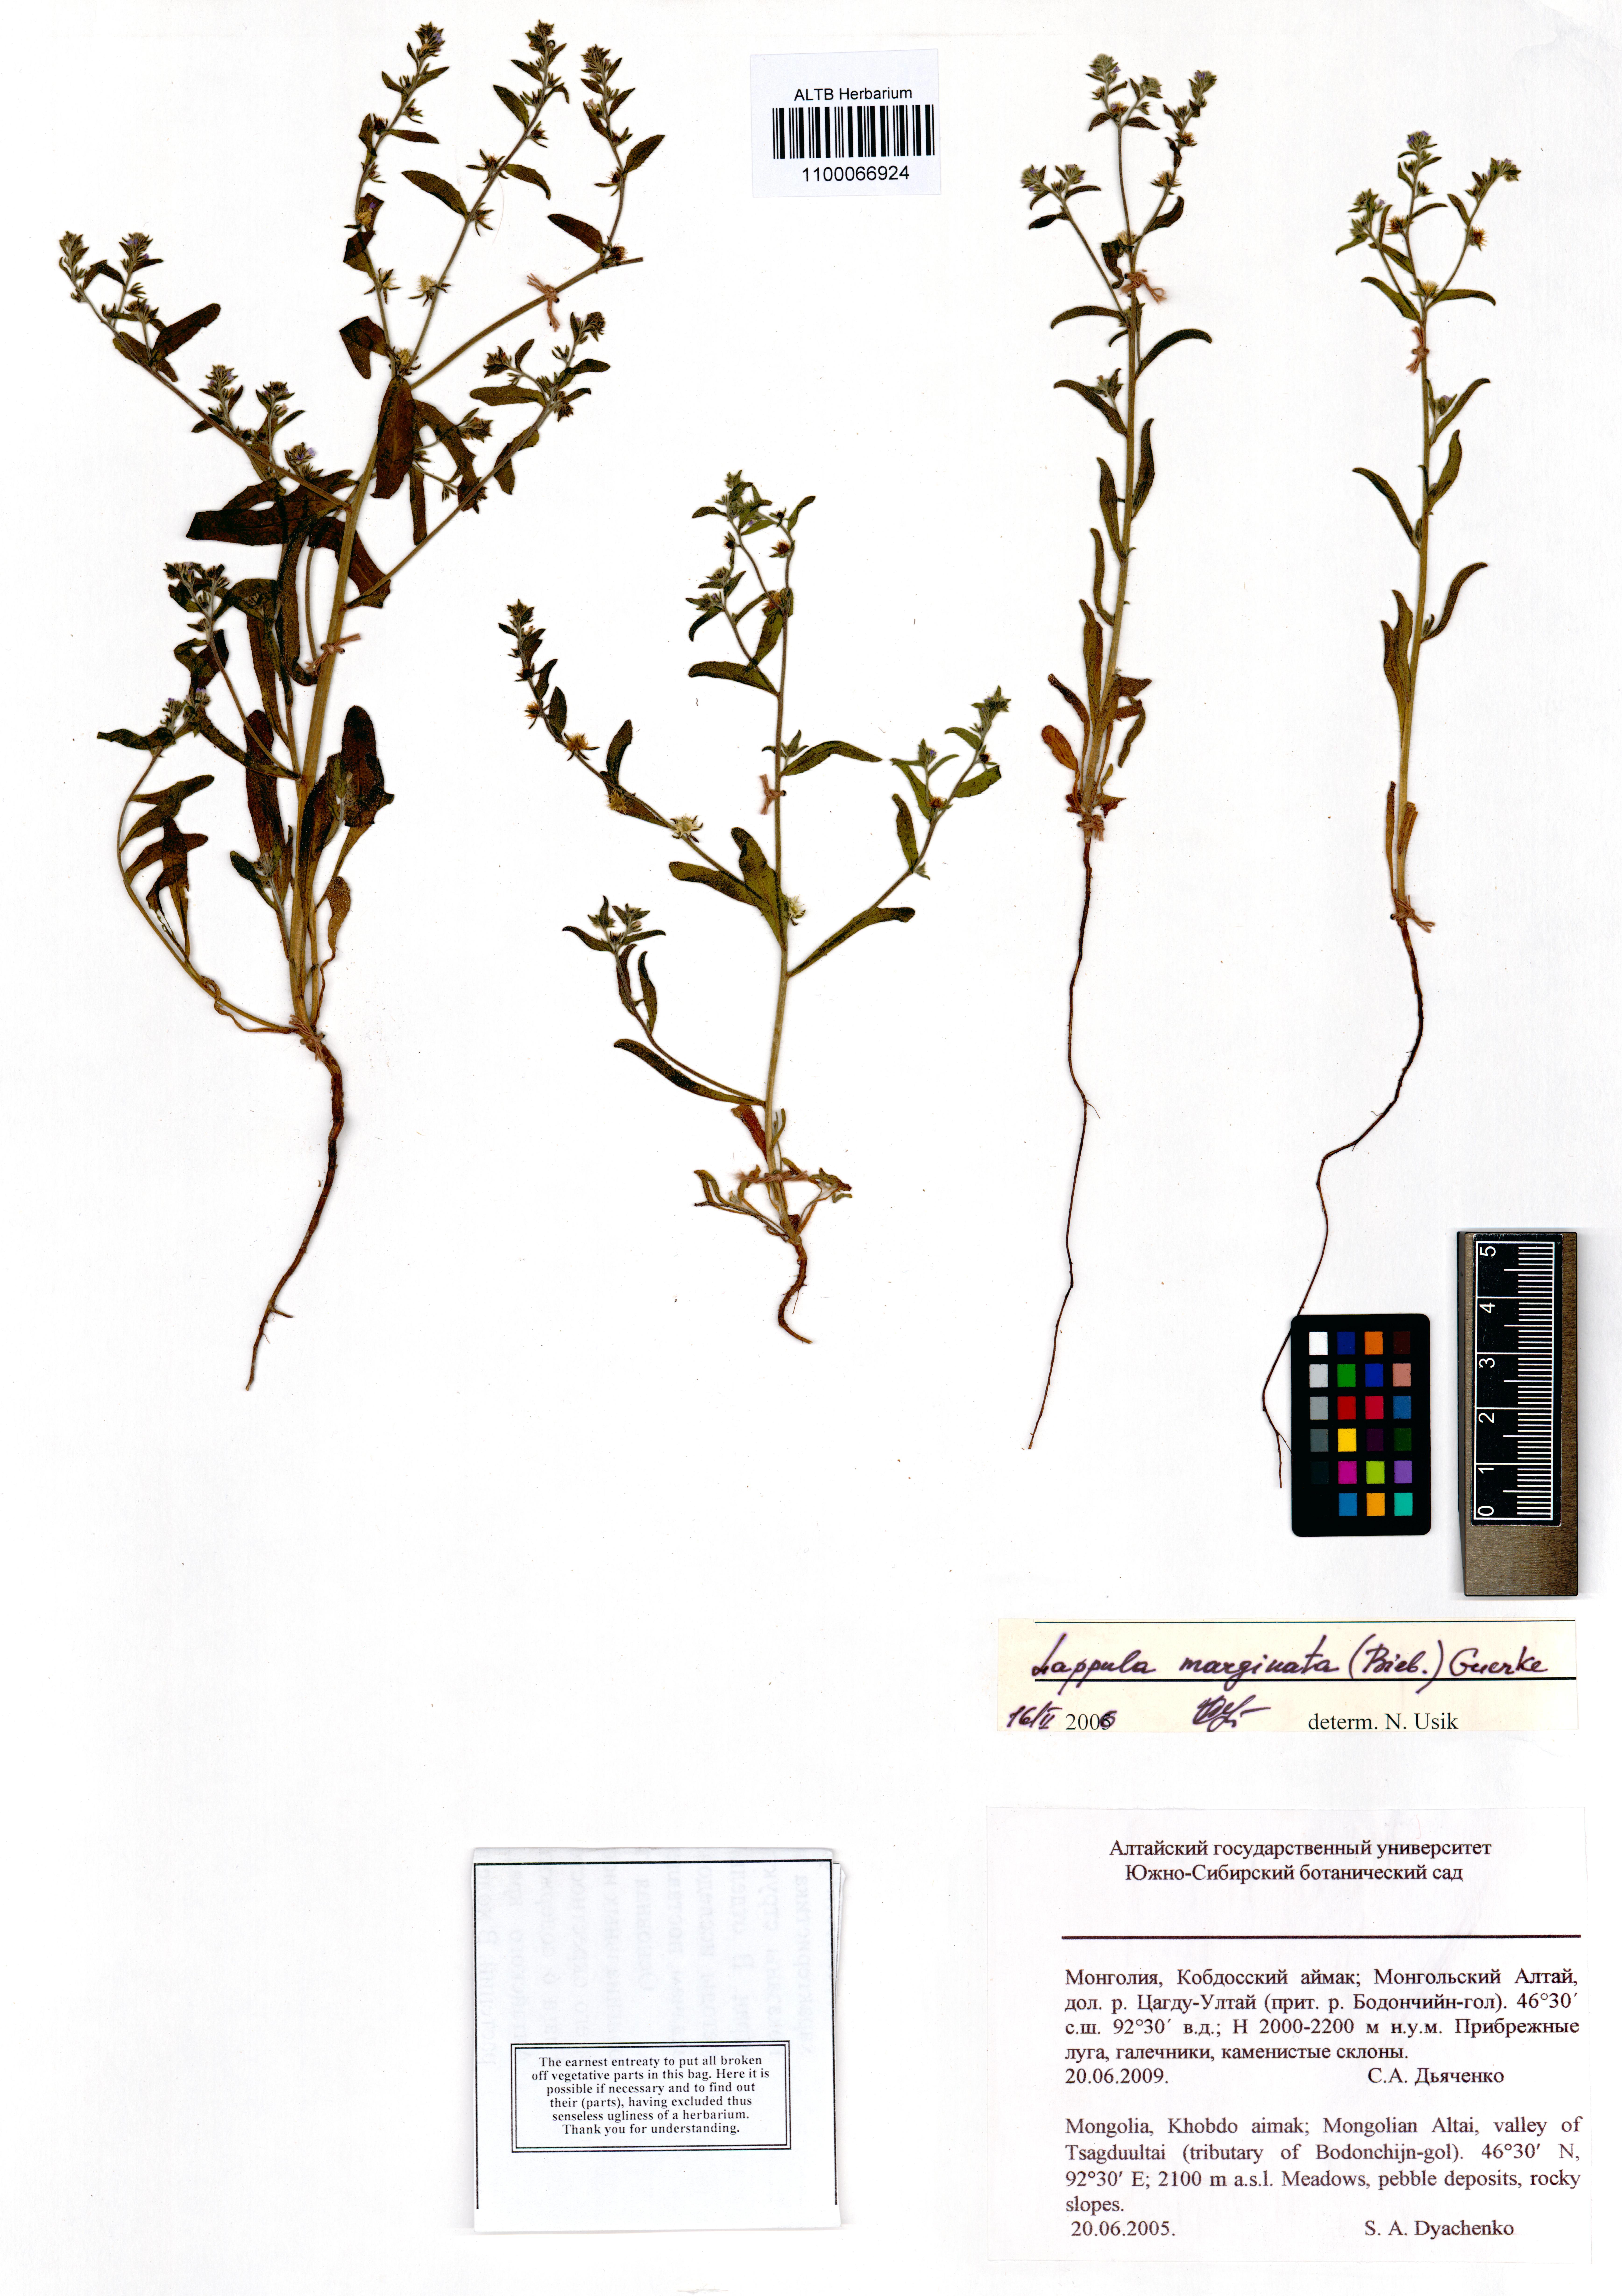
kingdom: Plantae
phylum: Tracheophyta
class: Magnoliopsida
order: Boraginales
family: Boraginaceae
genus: Lappula
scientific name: Lappula marginata
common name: Margined stickseed
